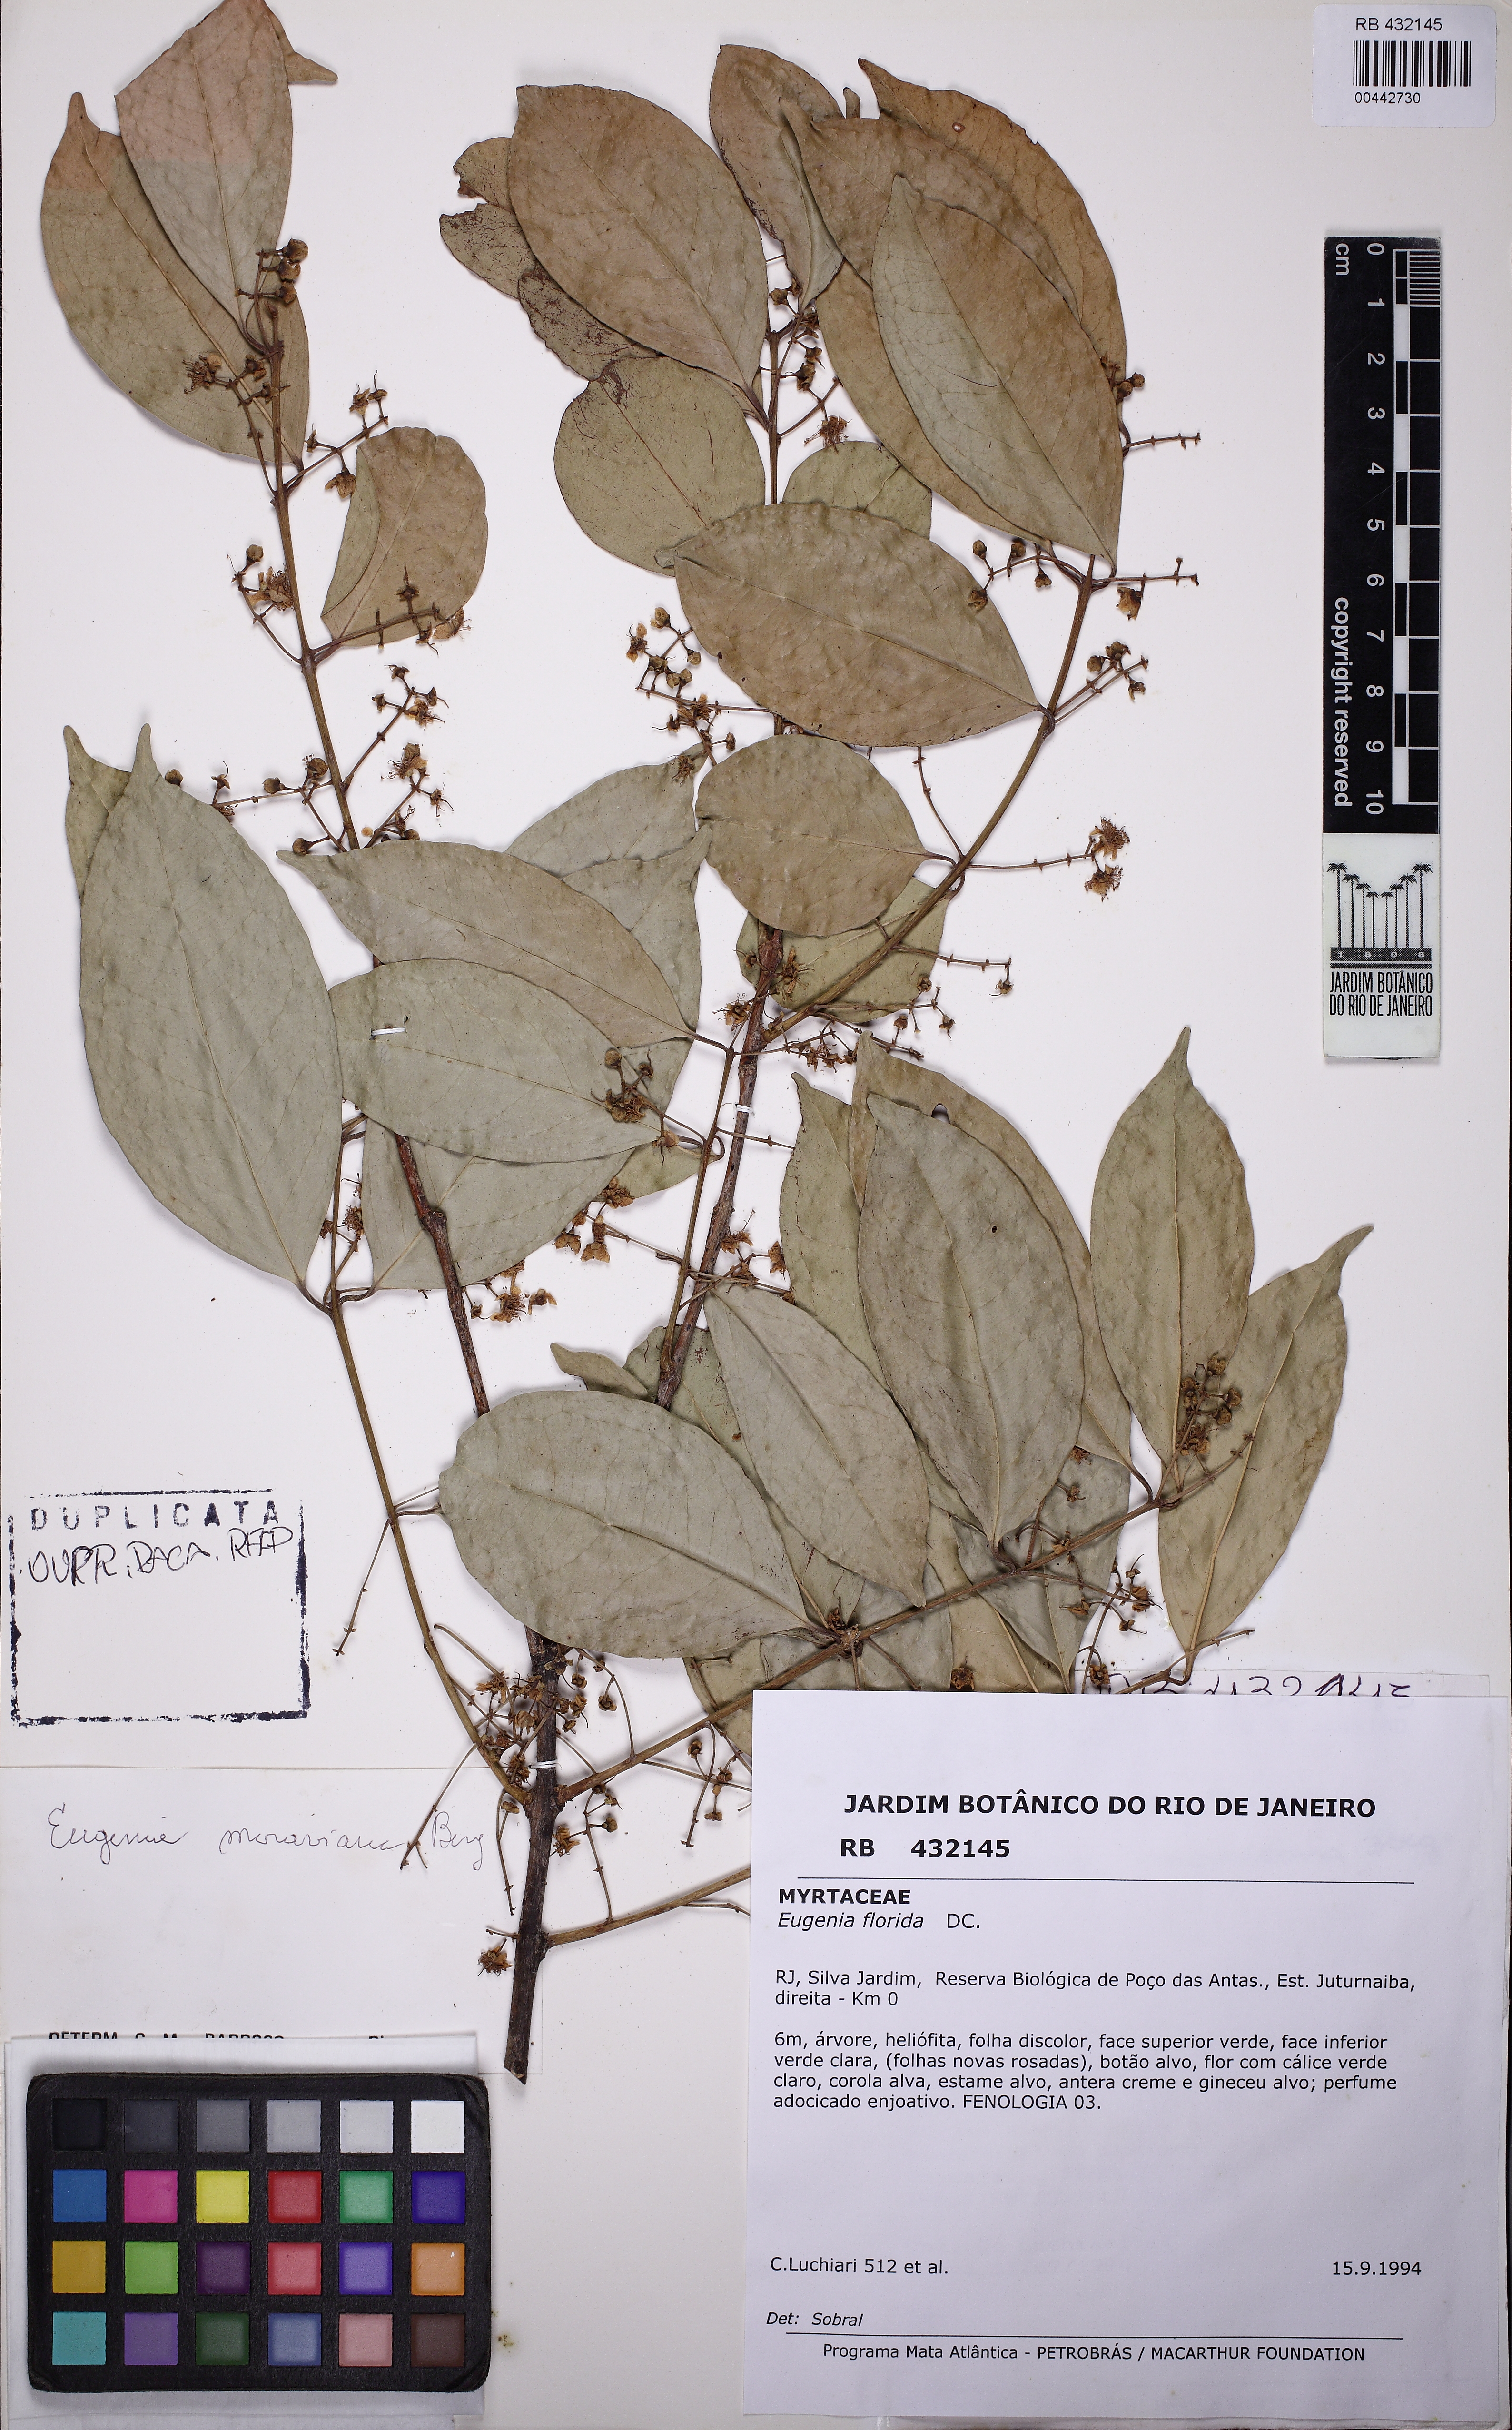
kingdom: Plantae
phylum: Tracheophyta
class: Magnoliopsida
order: Myrtales
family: Myrtaceae
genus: Eugenia
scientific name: Eugenia florida
